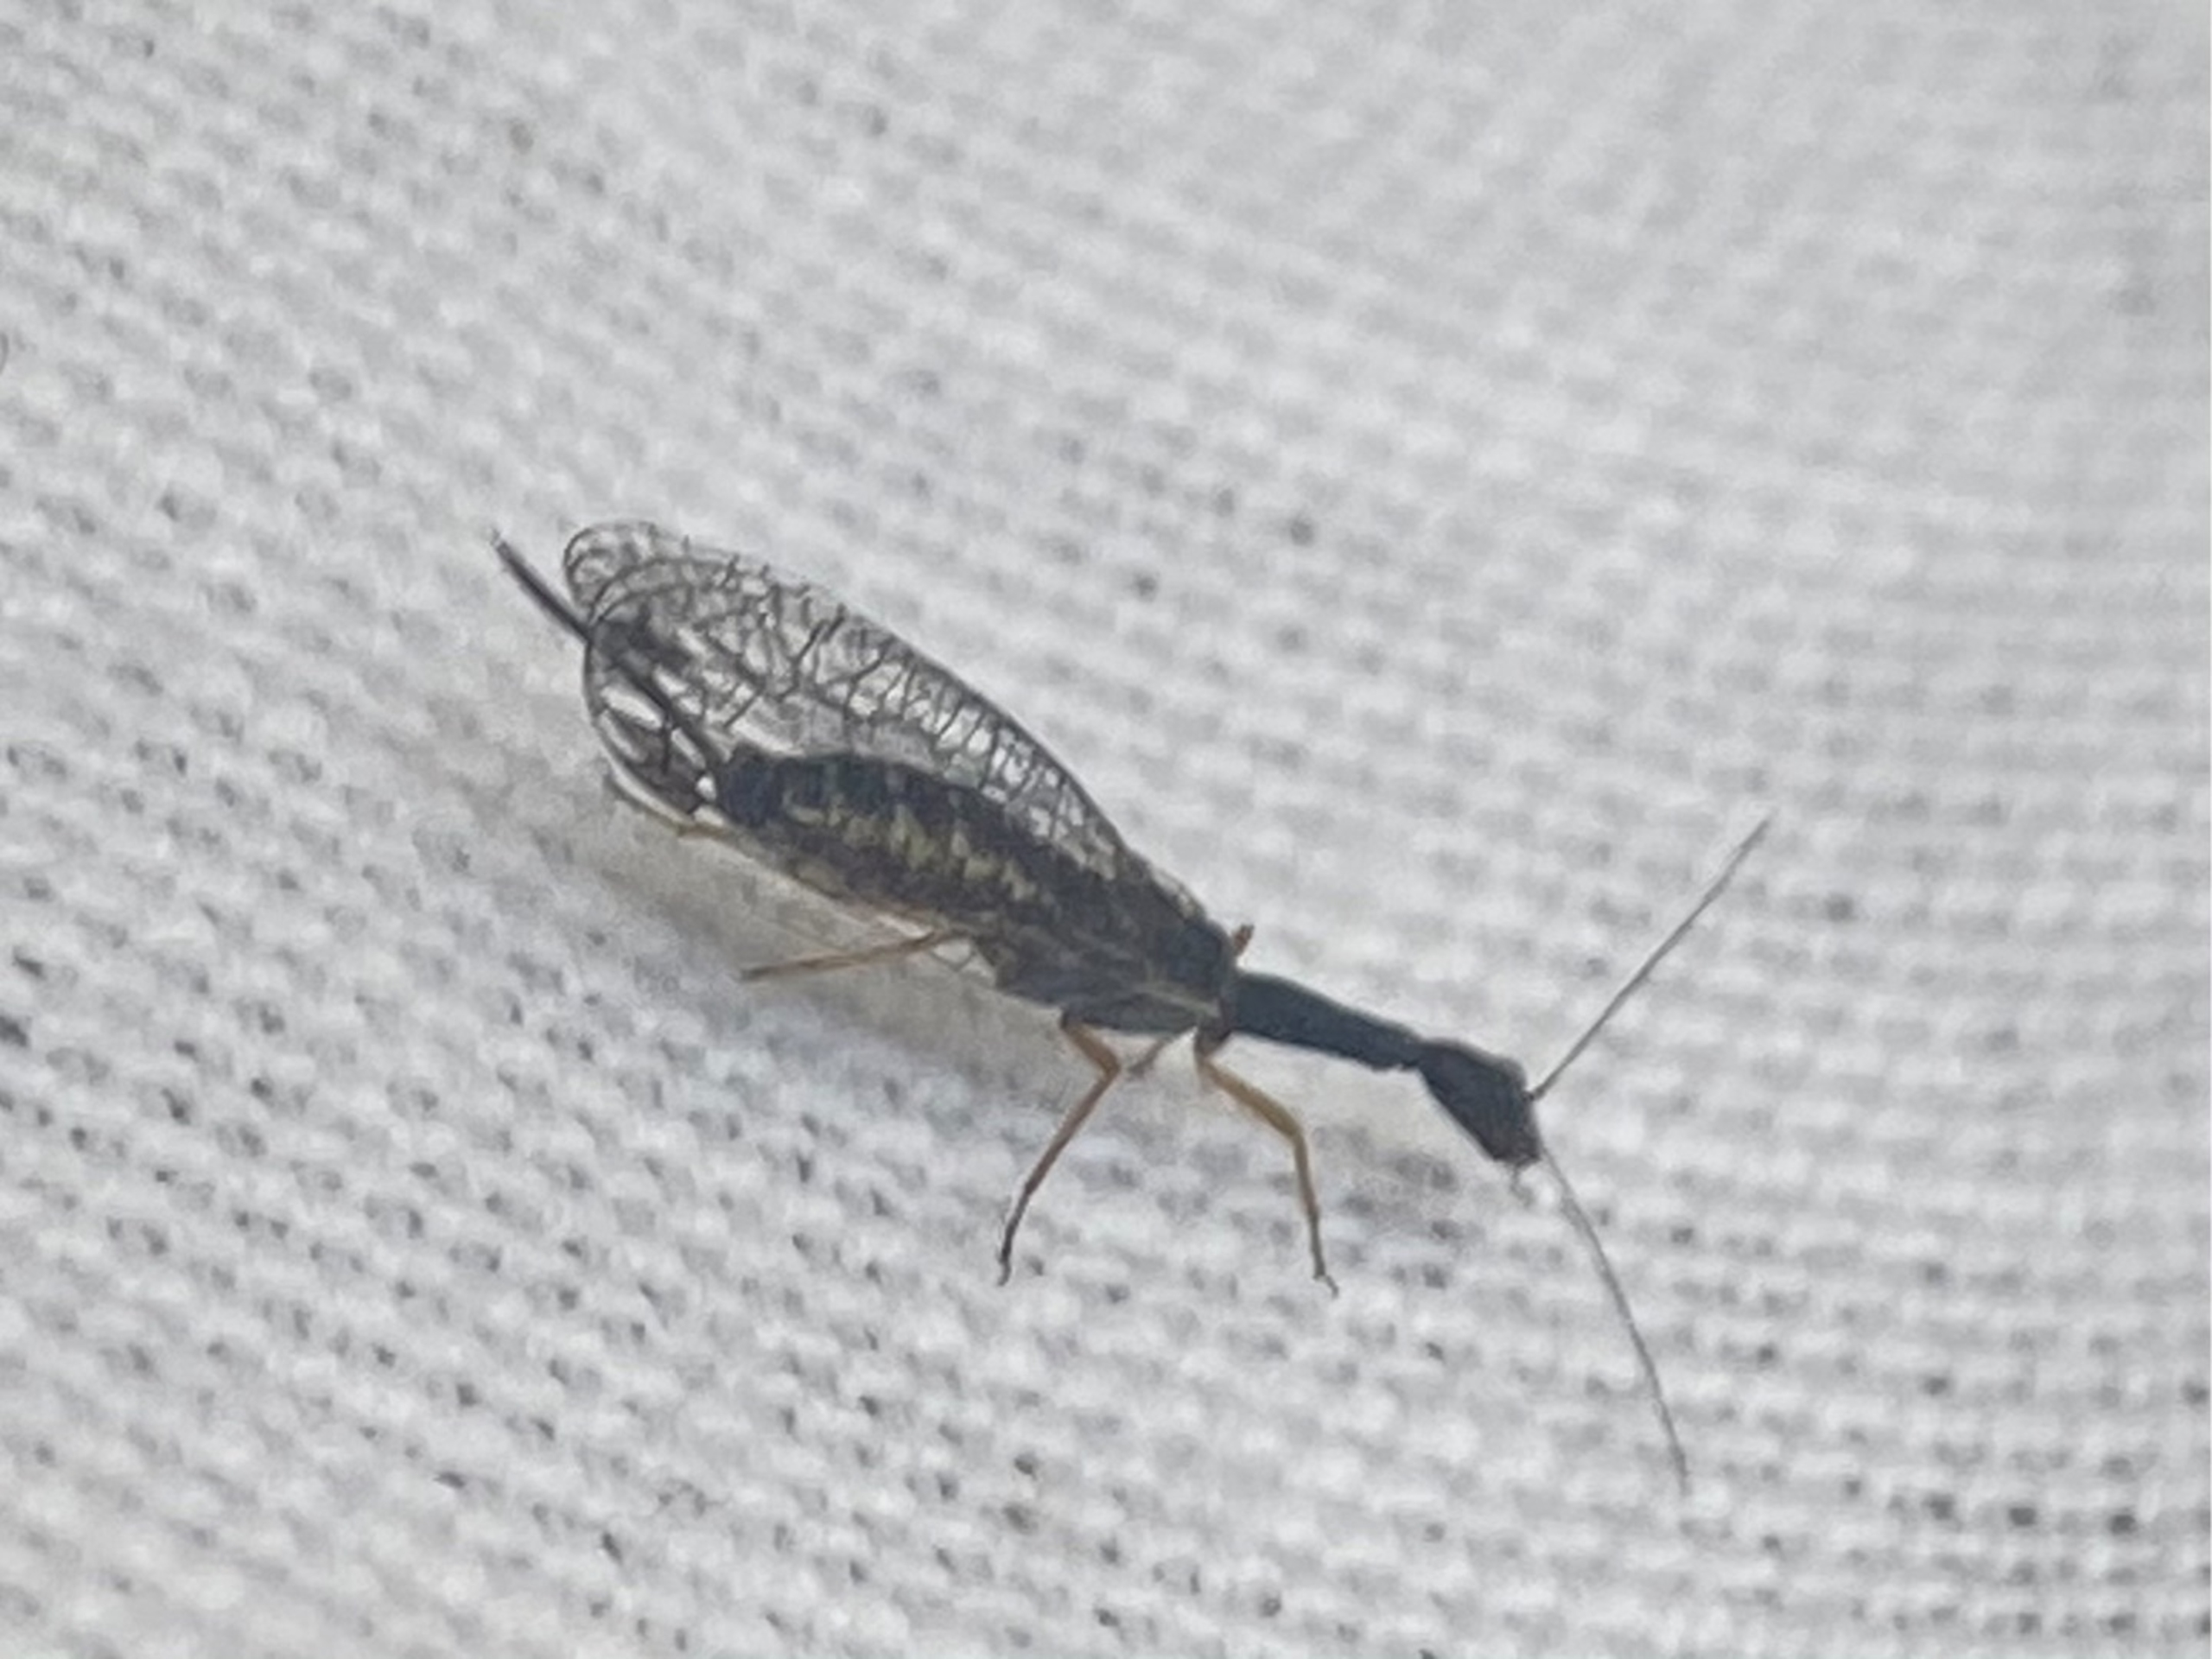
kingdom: Animalia
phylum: Arthropoda
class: Insecta
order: Raphidioptera
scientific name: Raphidioptera
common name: Kamelhalsfluer
